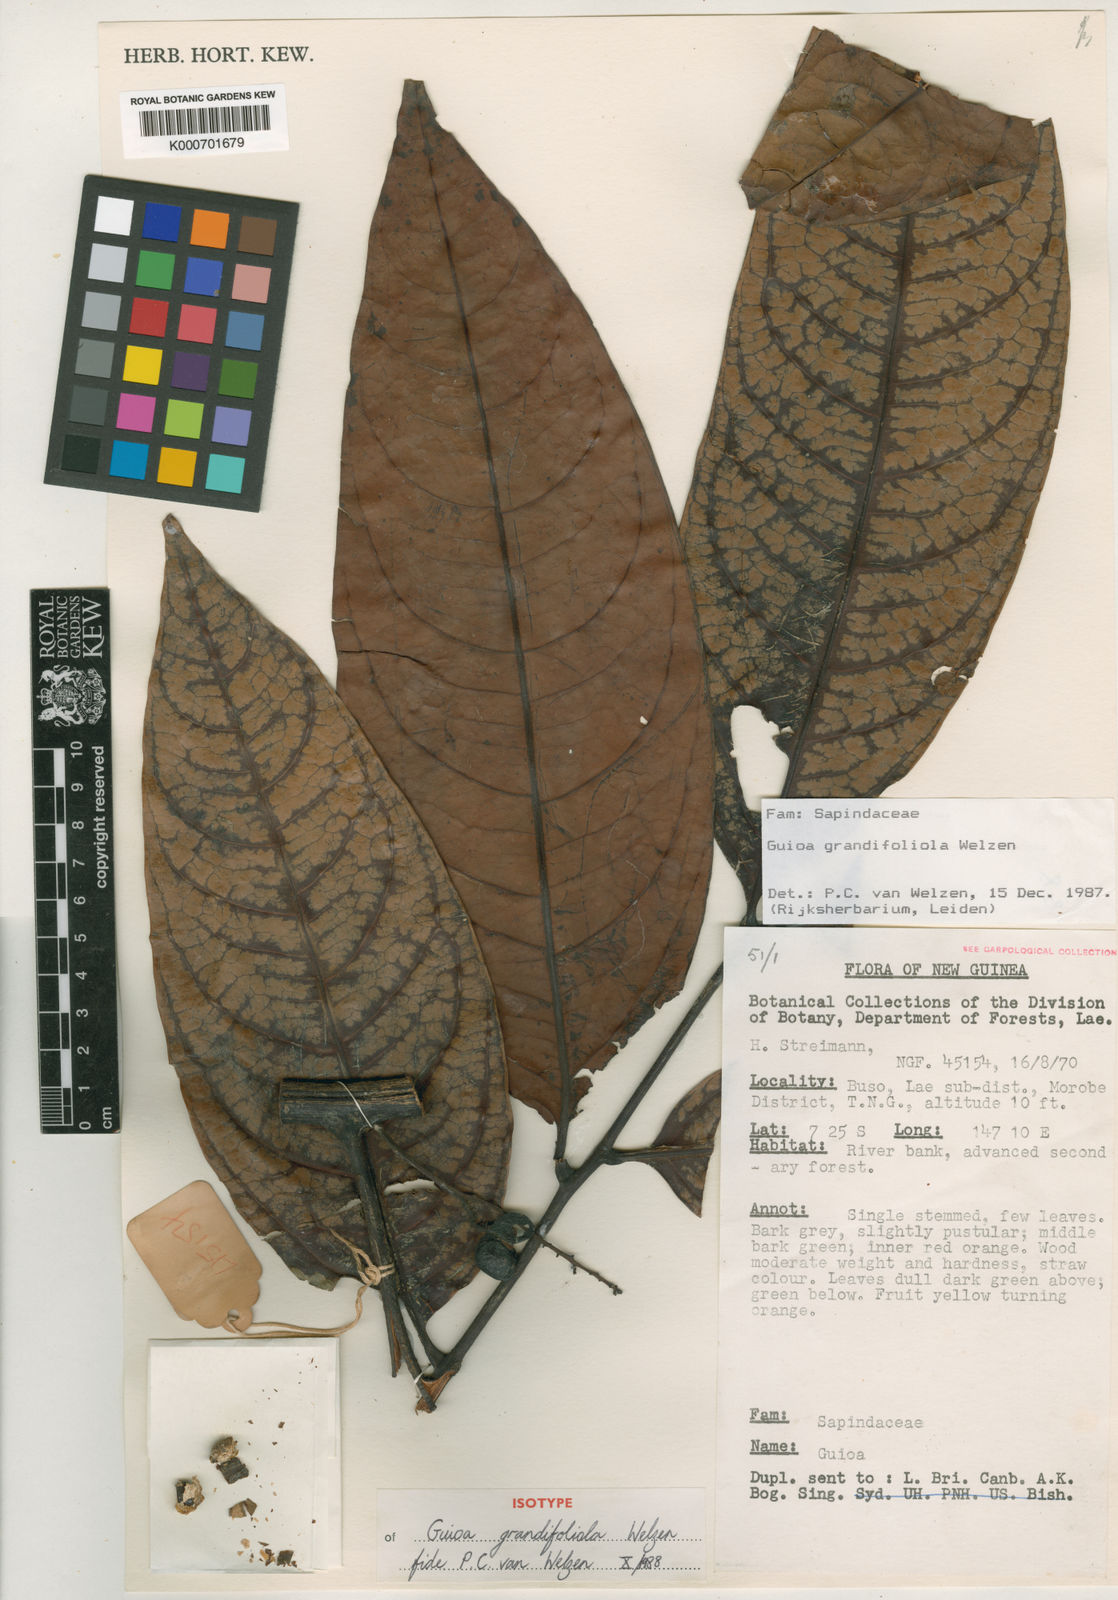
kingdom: Plantae
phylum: Tracheophyta
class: Magnoliopsida
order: Sapindales
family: Sapindaceae
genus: Guioa
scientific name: Guioa grandifoliola
